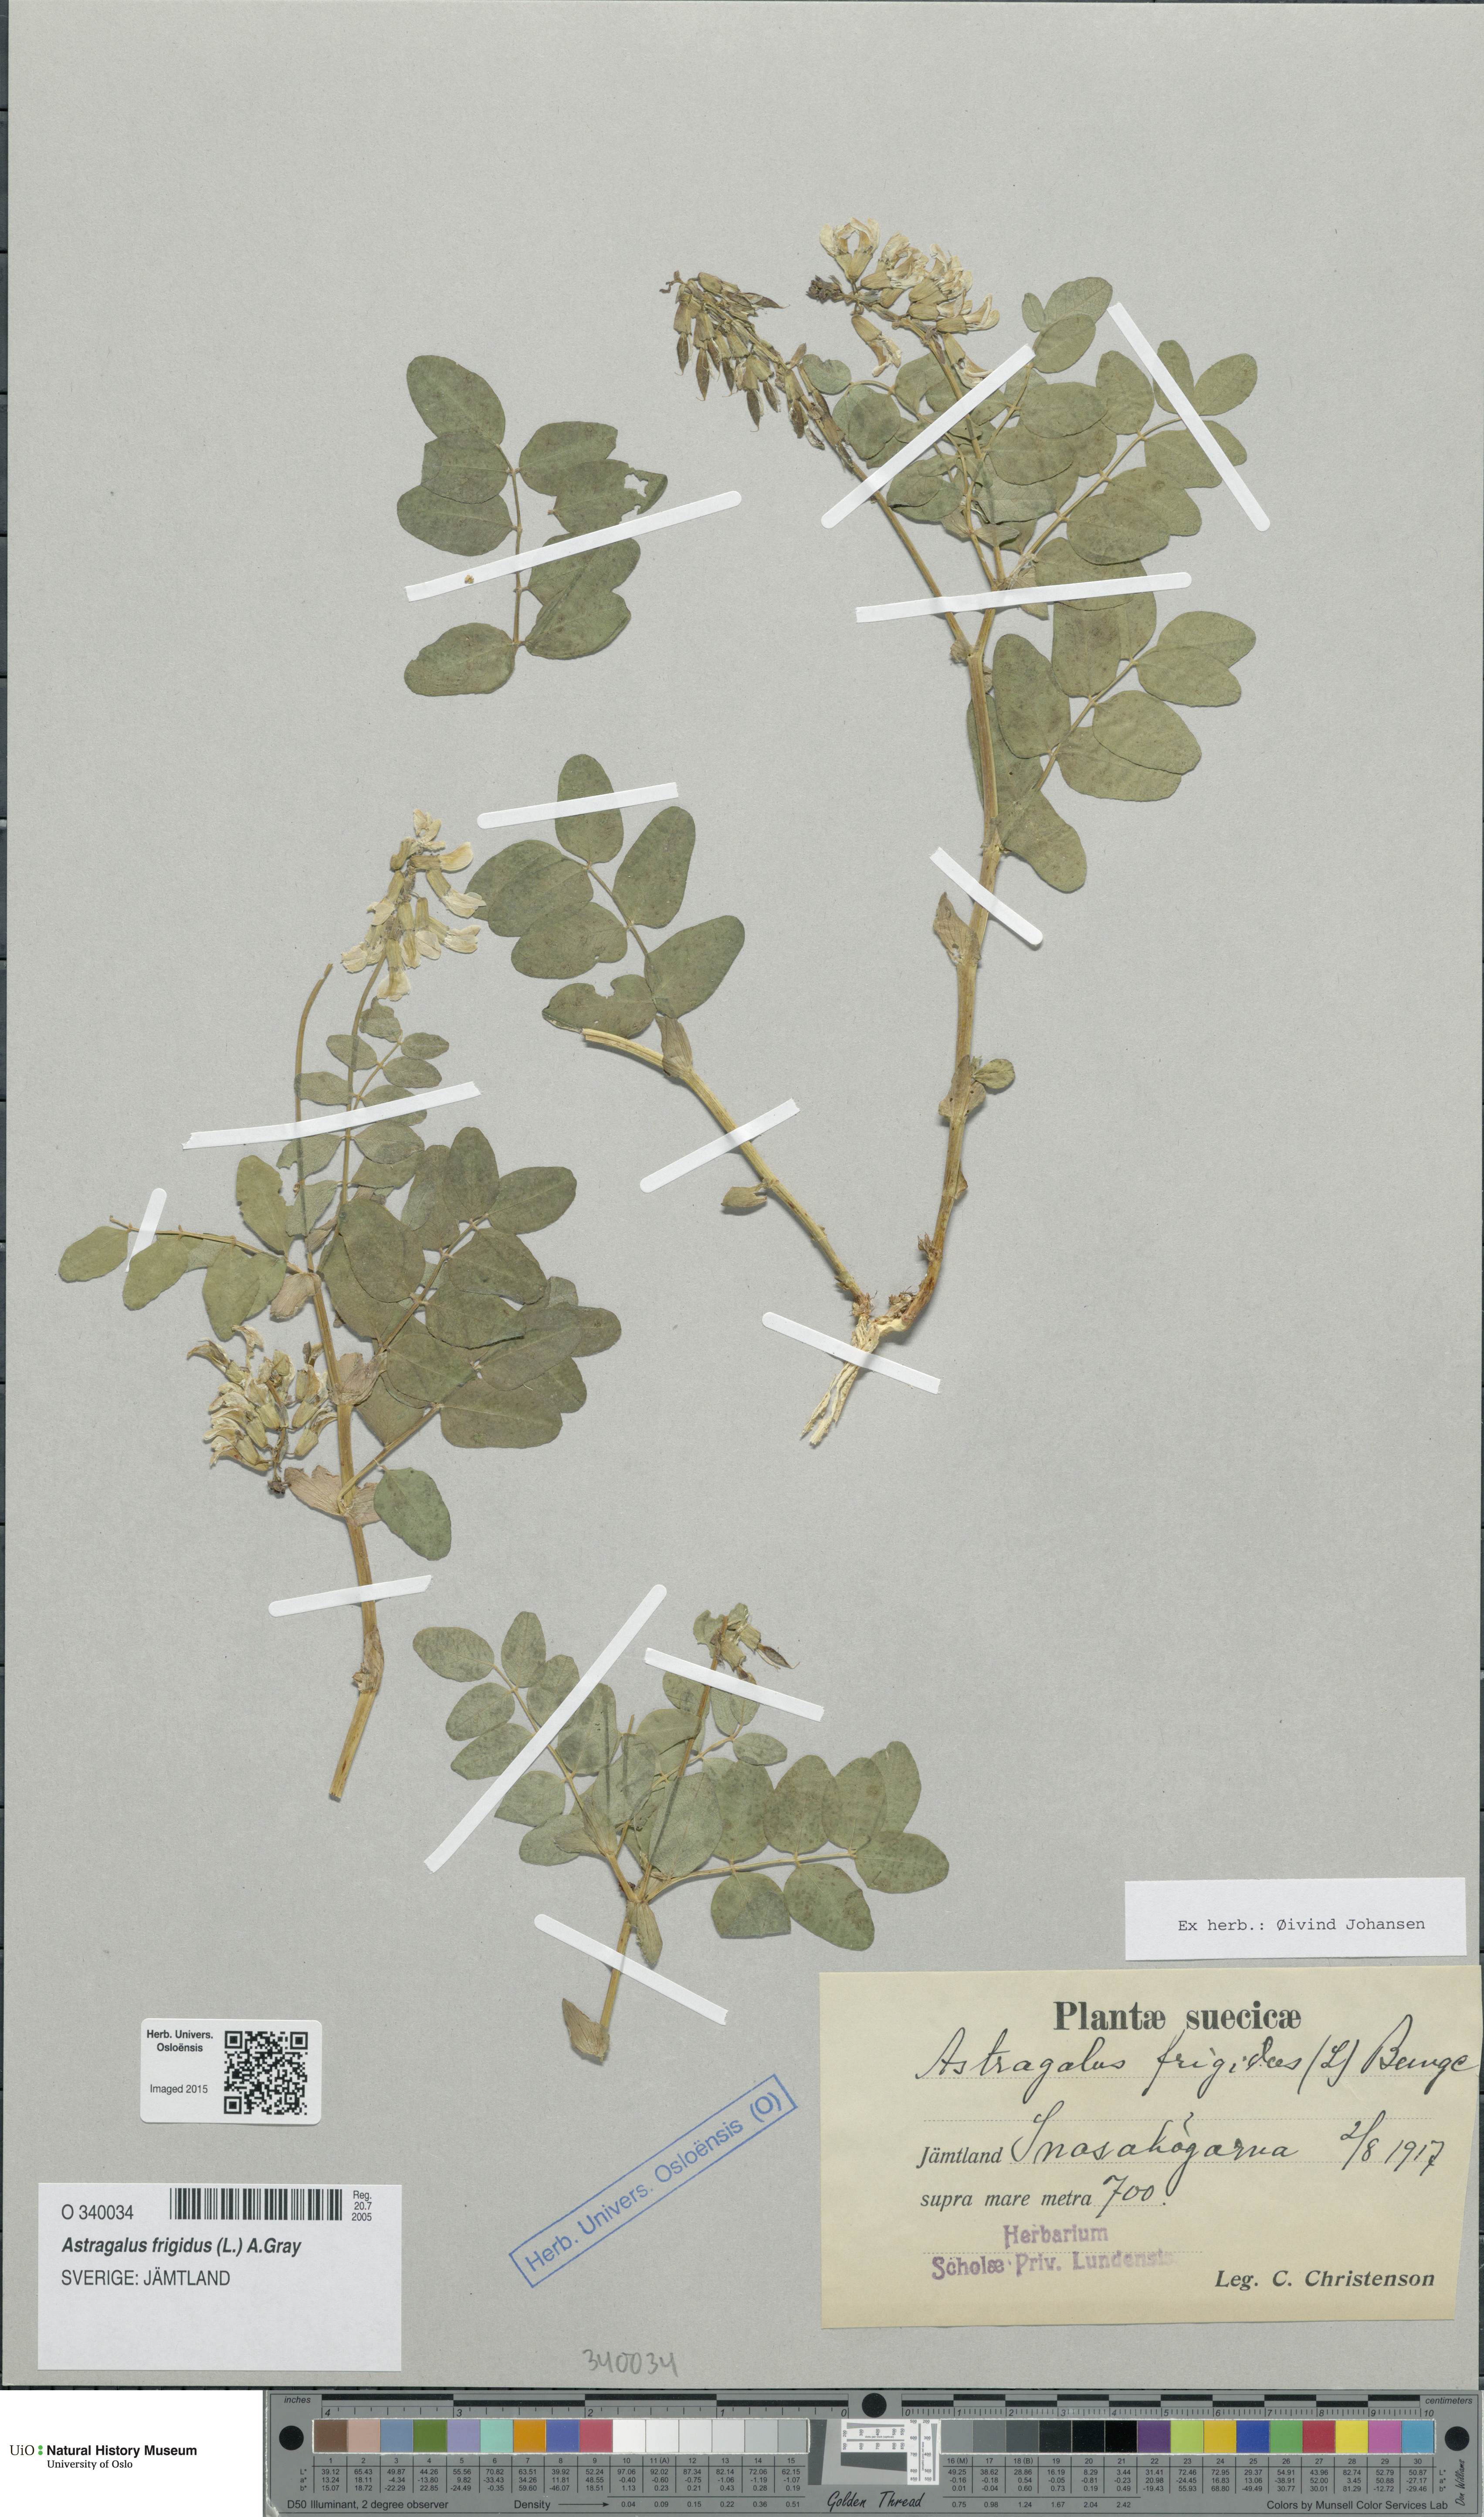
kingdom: Plantae
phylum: Tracheophyta
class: Magnoliopsida
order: Fabales
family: Fabaceae
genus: Astragalus
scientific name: Astragalus frigidus
